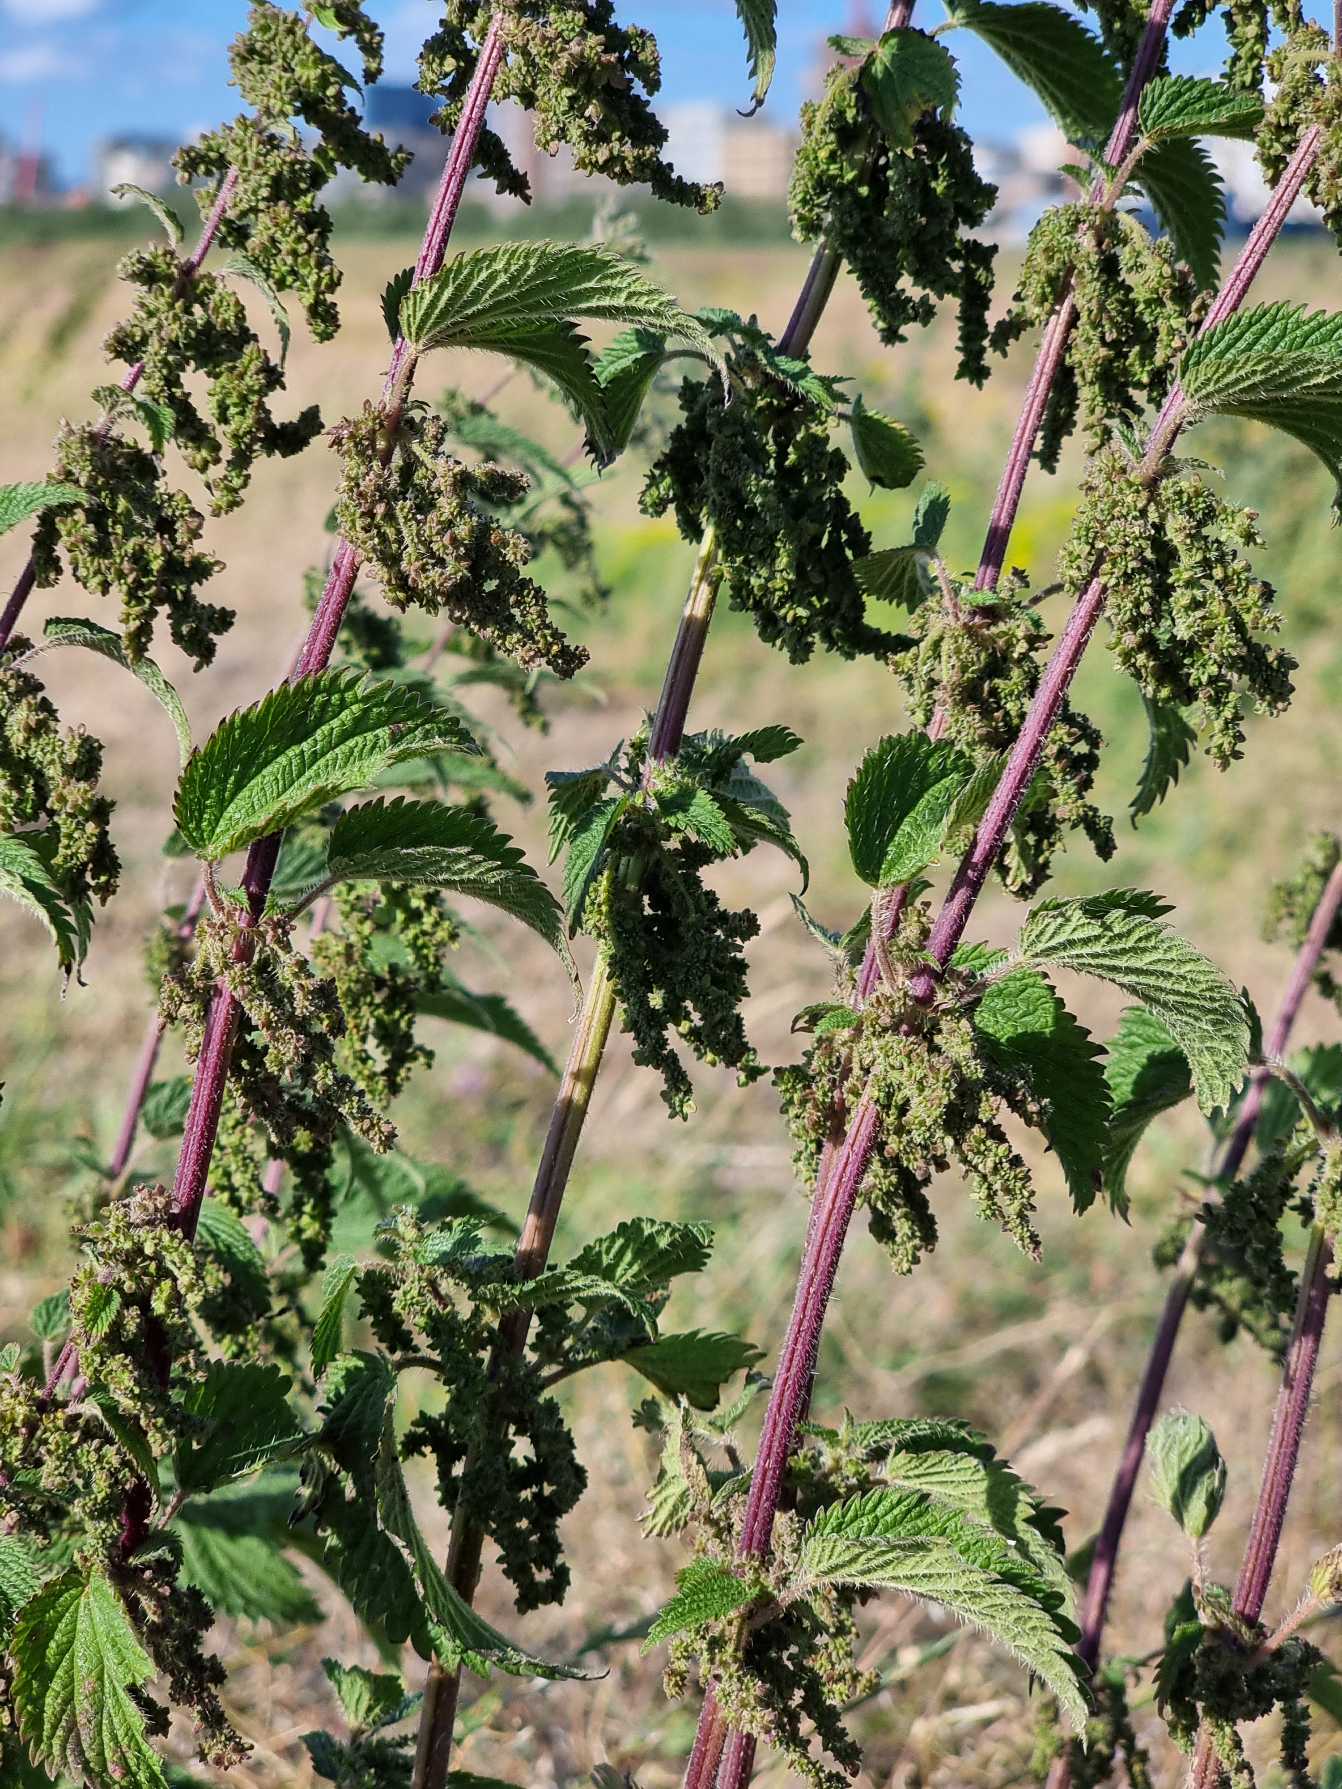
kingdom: Plantae
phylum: Tracheophyta
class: Magnoliopsida
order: Rosales
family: Urticaceae
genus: Urtica
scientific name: Urtica dioica
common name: Stor nælde
